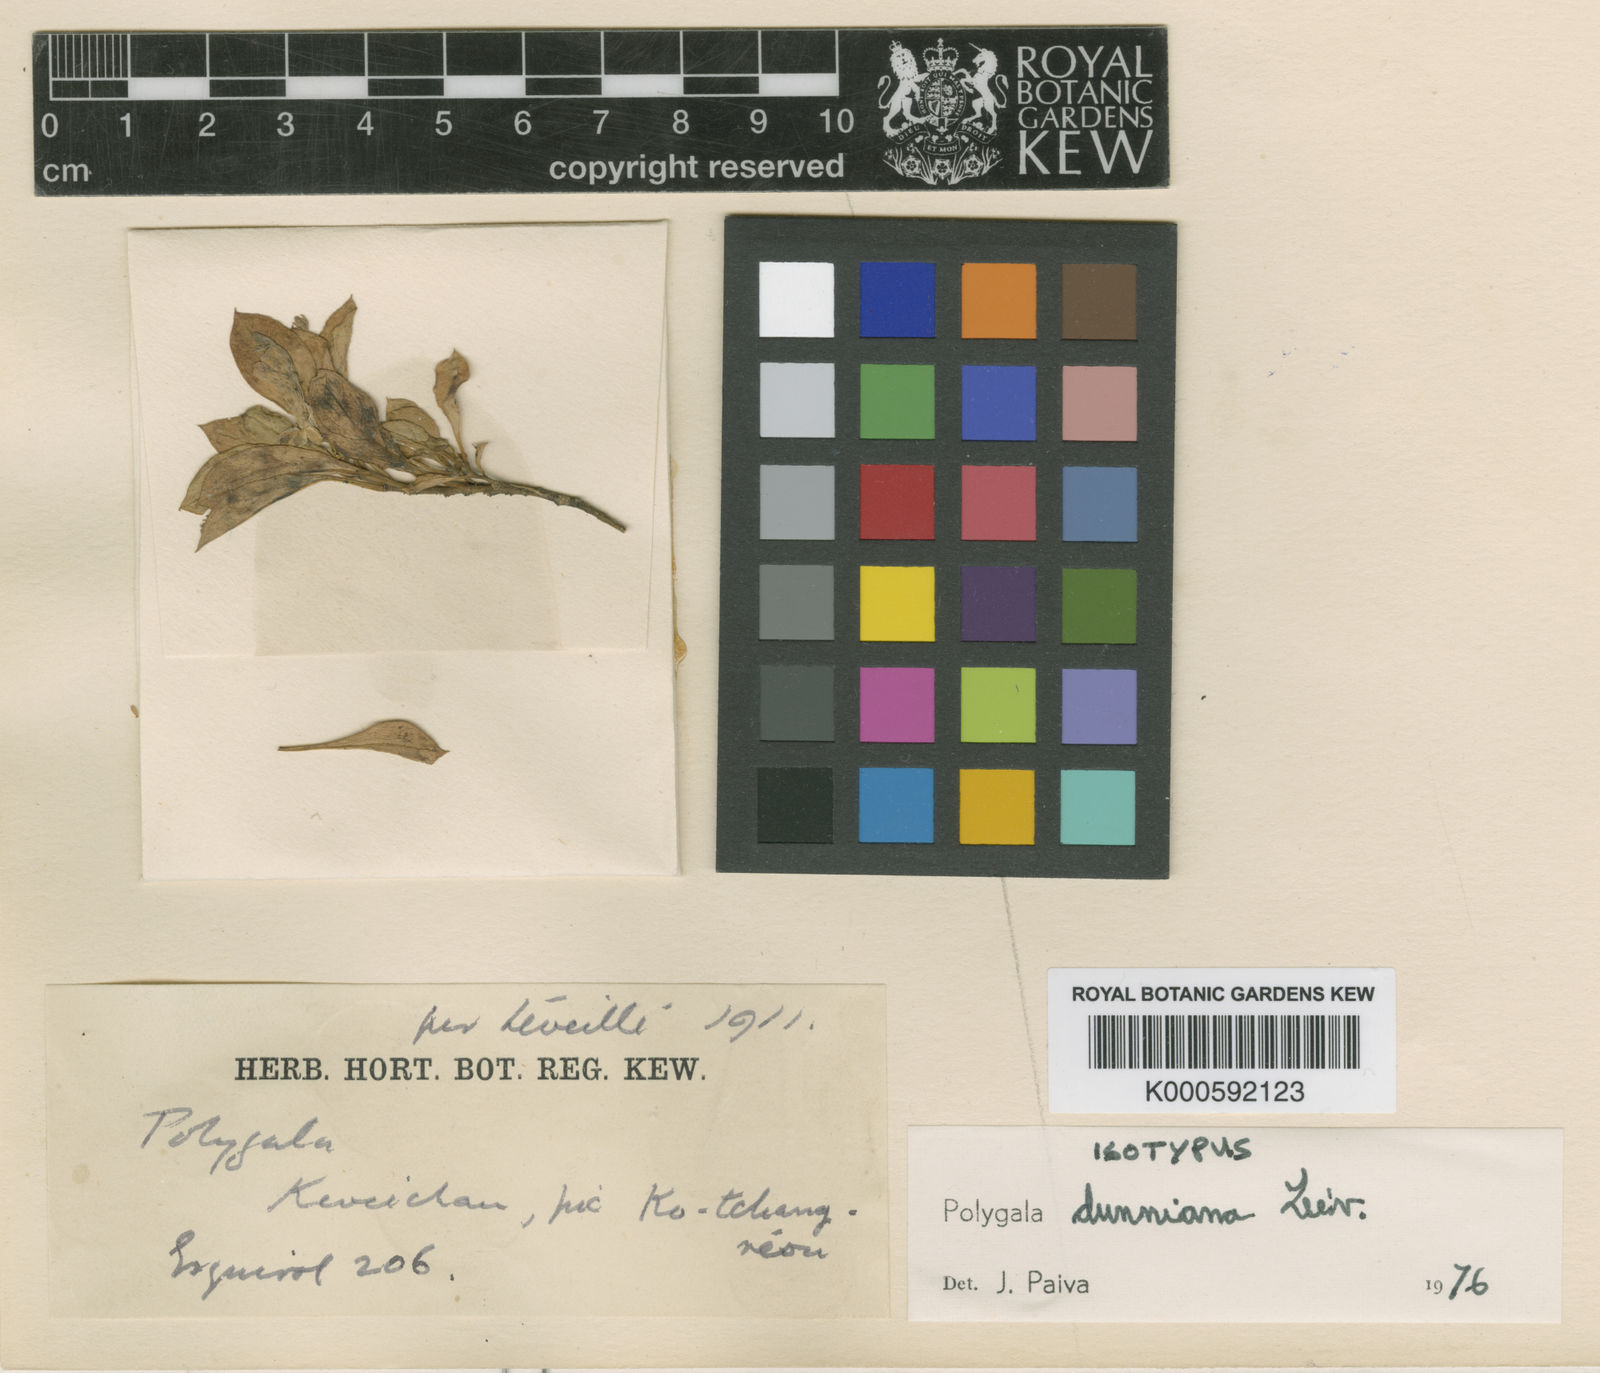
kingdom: Plantae
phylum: Tracheophyta
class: Magnoliopsida
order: Fabales
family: Polygalaceae
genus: Polygala
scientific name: Polygala
